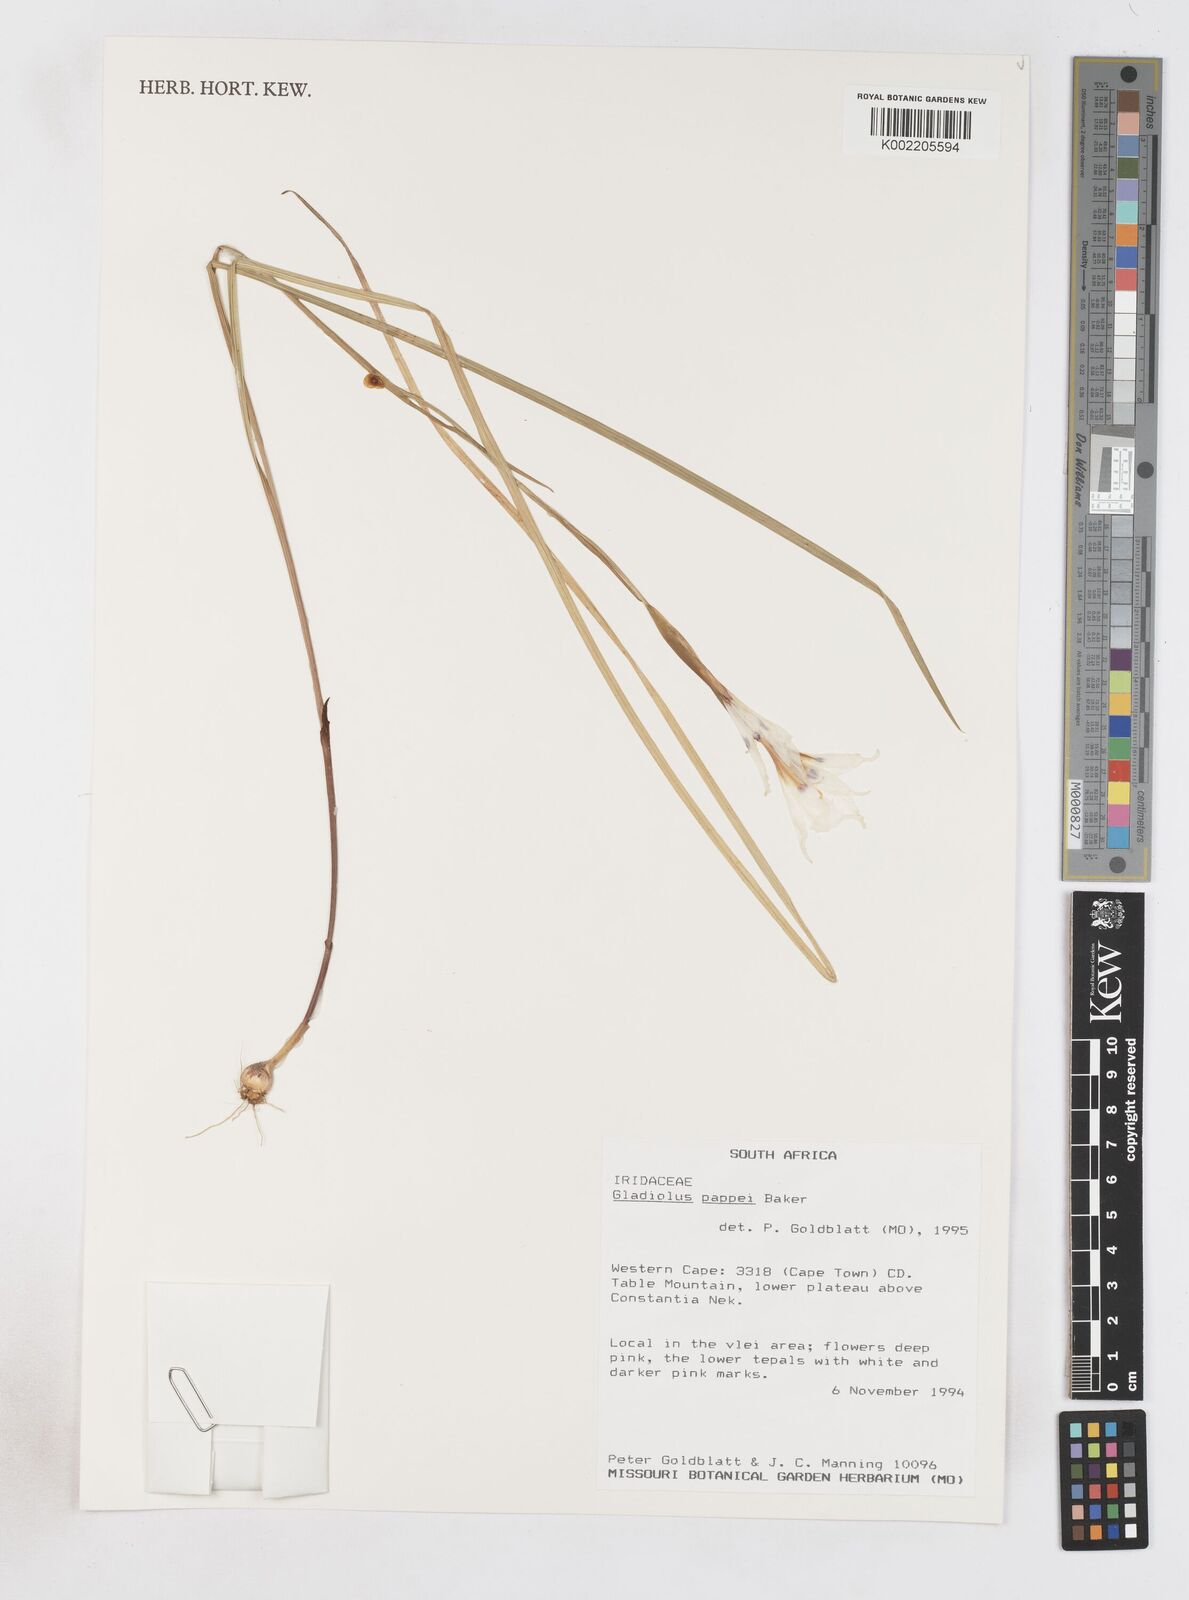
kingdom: Plantae
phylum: Tracheophyta
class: Liliopsida
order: Asparagales
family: Iridaceae
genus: Gladiolus
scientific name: Gladiolus carneus
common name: Painted-lady
